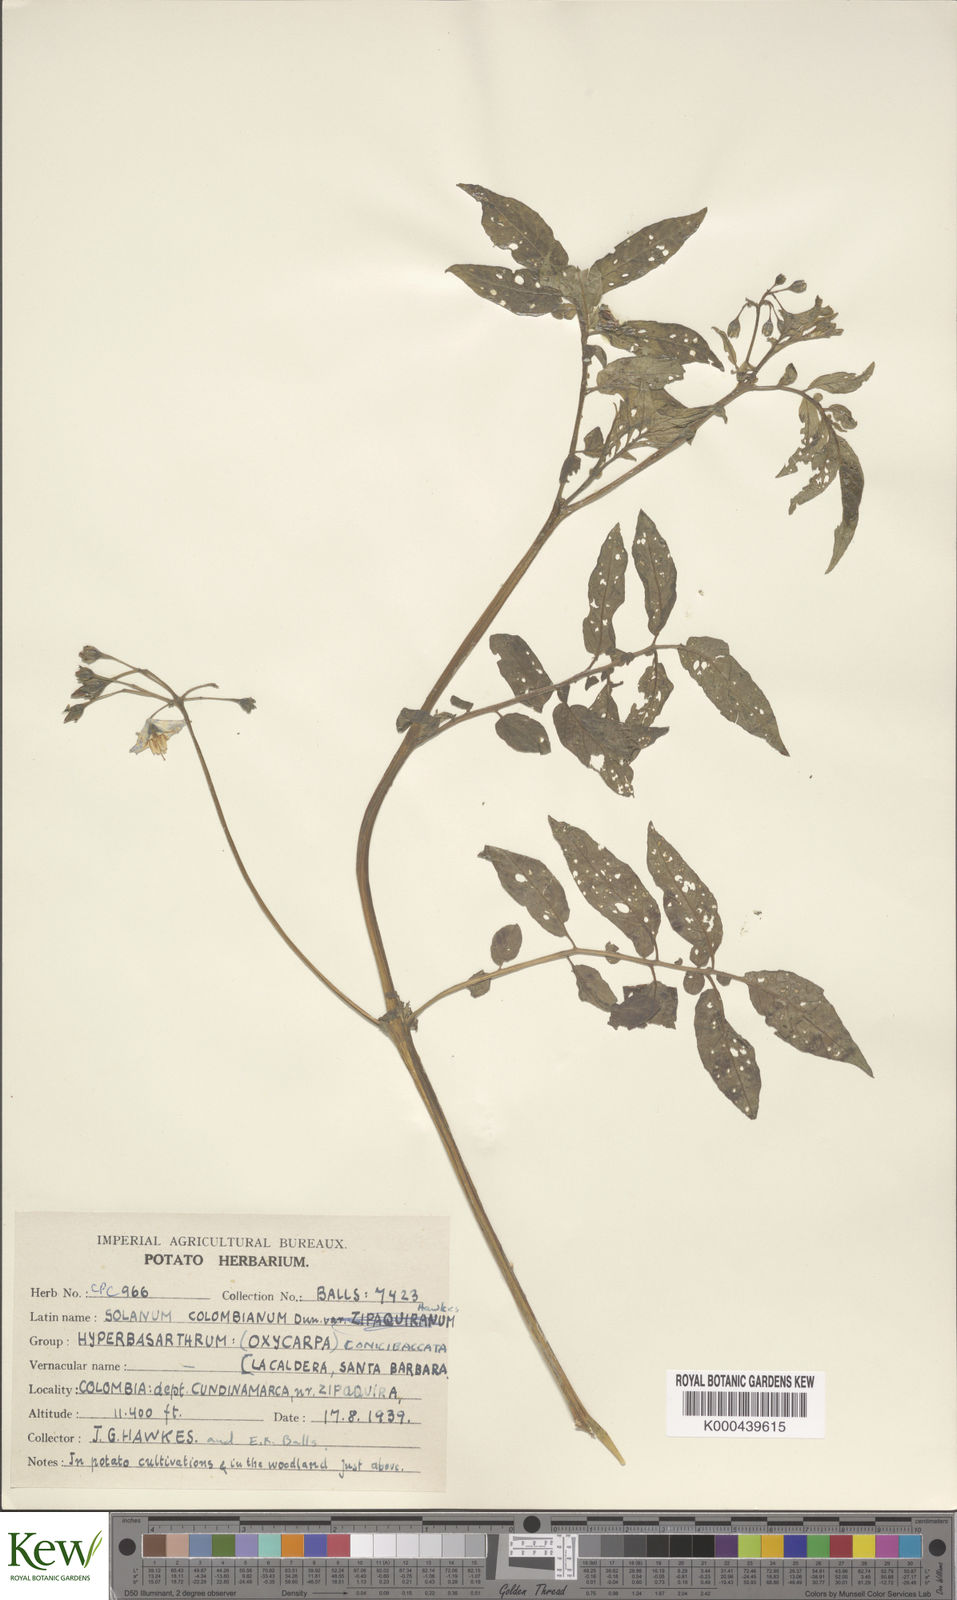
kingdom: Plantae
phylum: Tracheophyta
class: Magnoliopsida
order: Solanales
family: Solanaceae
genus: Solanum
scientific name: Solanum colombianum
